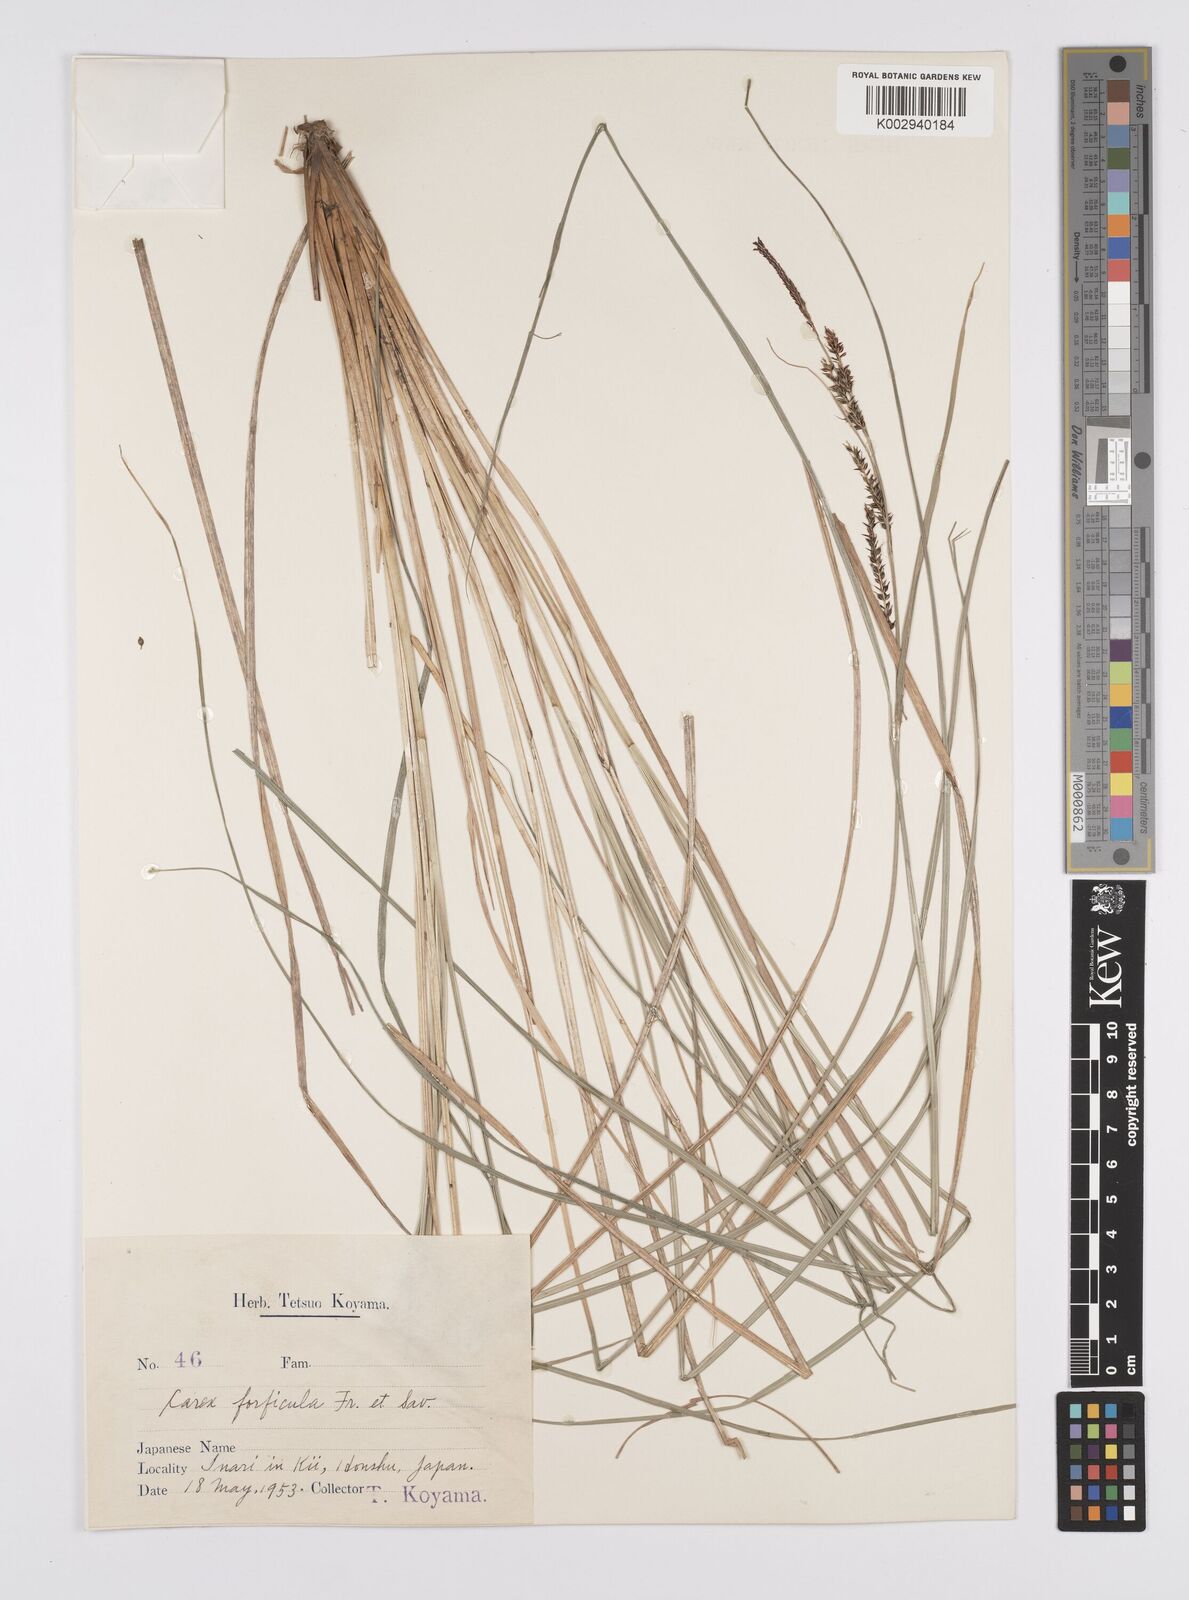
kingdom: Plantae
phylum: Tracheophyta
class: Liliopsida
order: Poales
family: Cyperaceae
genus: Carex
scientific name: Carex forficula
